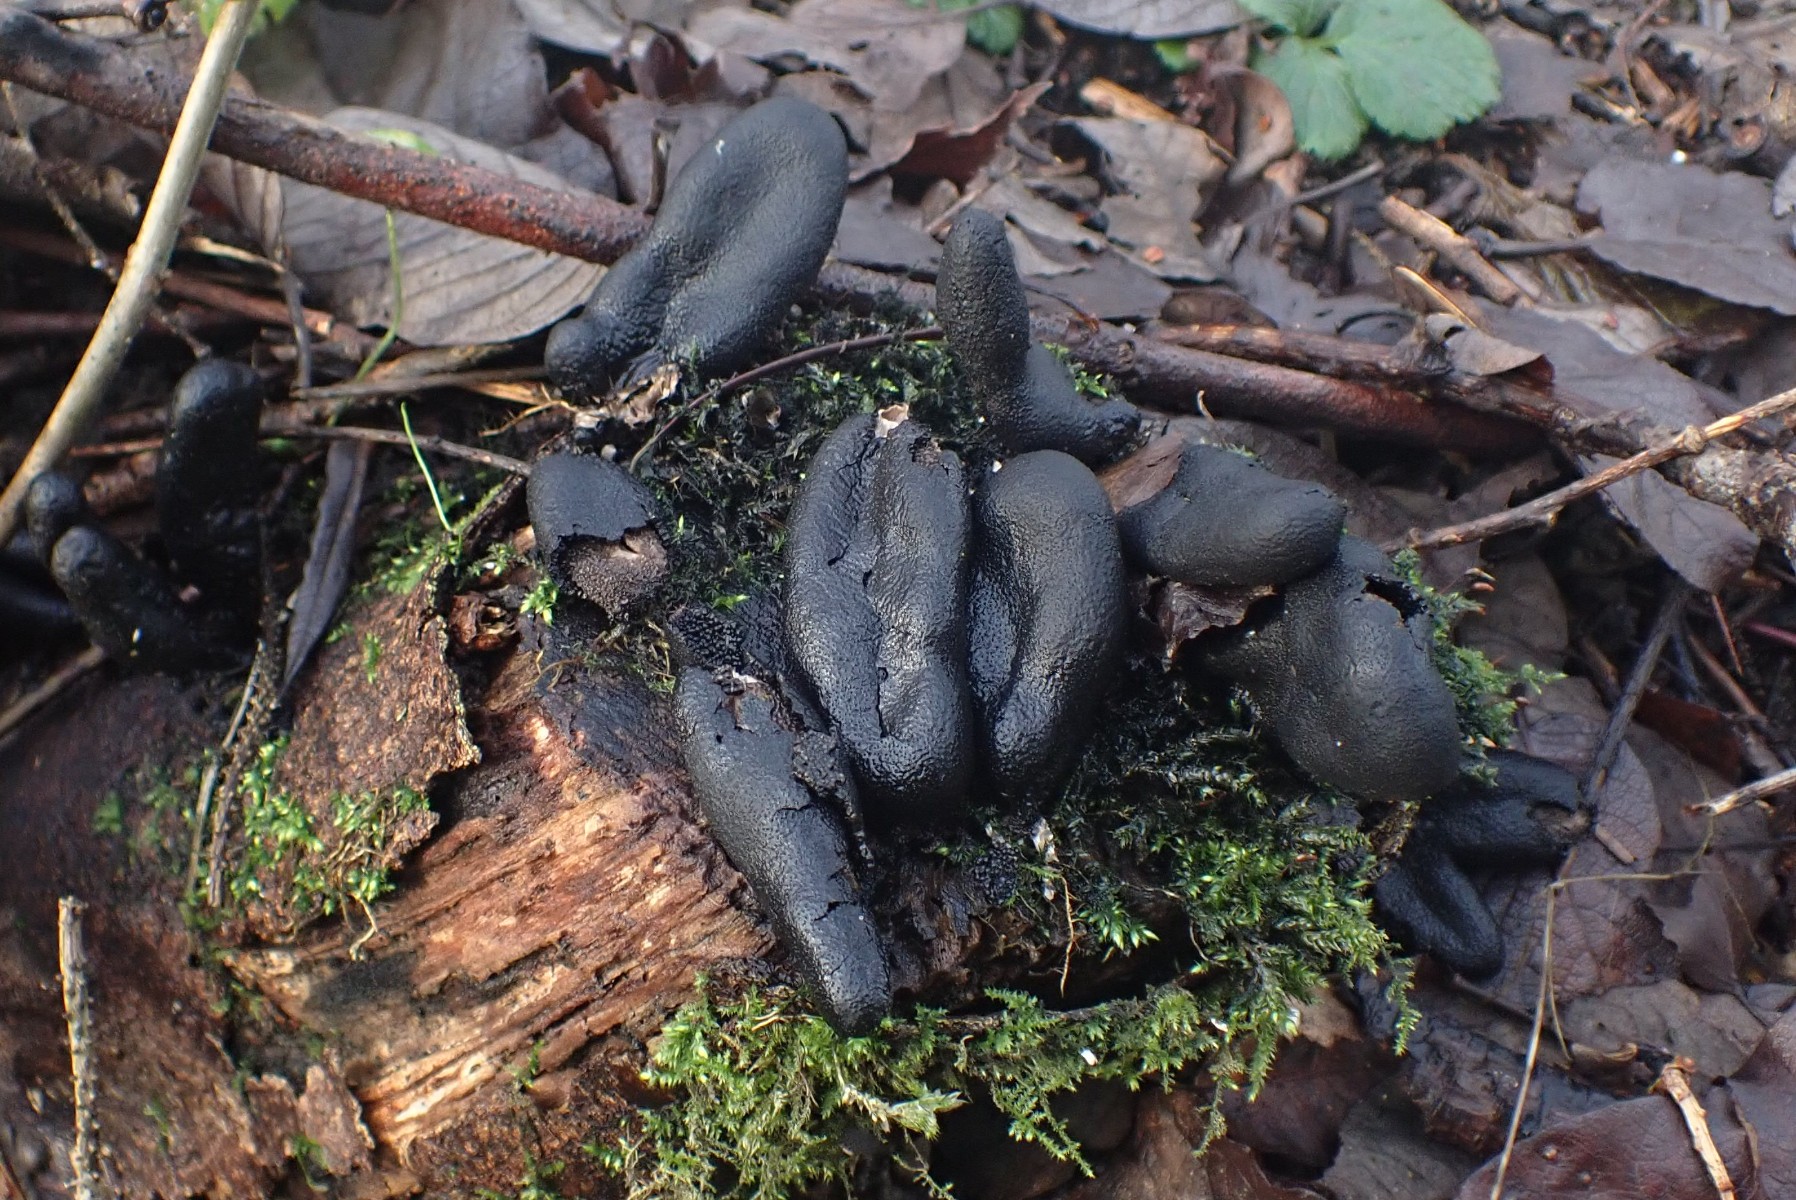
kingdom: Fungi
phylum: Ascomycota
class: Sordariomycetes
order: Xylariales
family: Xylariaceae
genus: Xylaria
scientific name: Xylaria polymorpha
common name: kølle-stødsvamp
